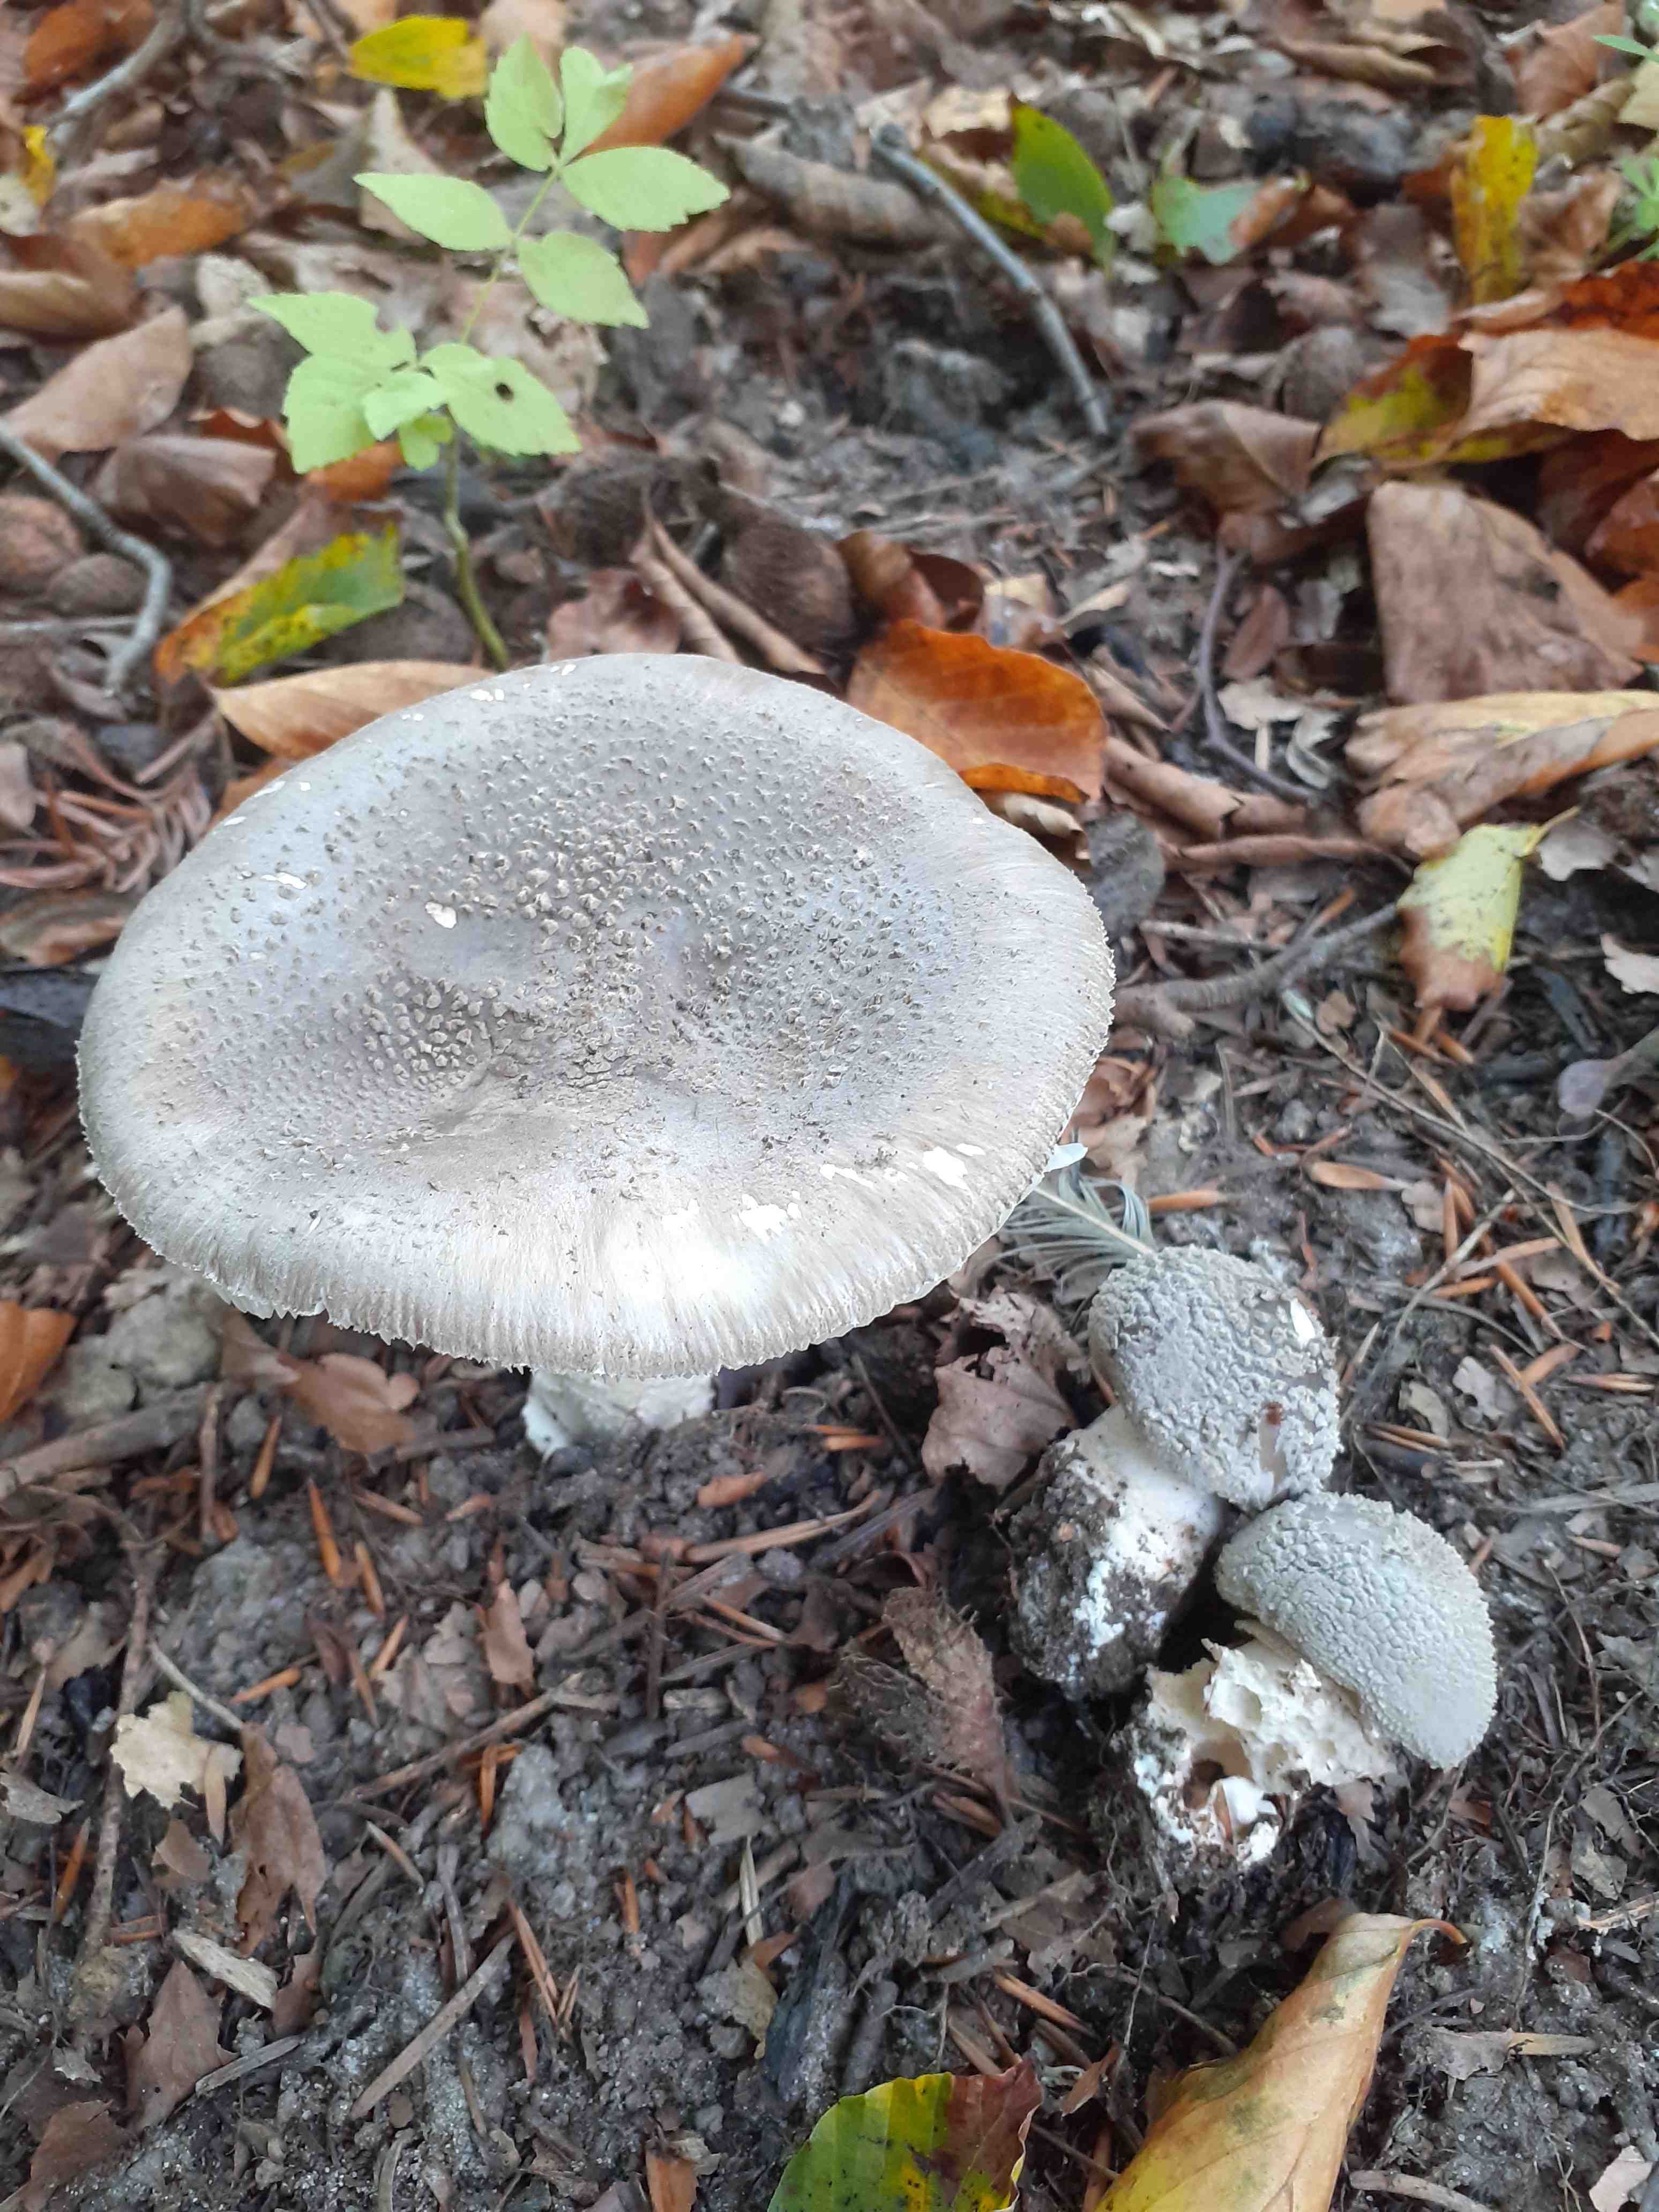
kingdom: Fungi
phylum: Basidiomycota
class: Agaricomycetes
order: Agaricales
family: Amanitaceae
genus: Amanita
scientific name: Amanita
